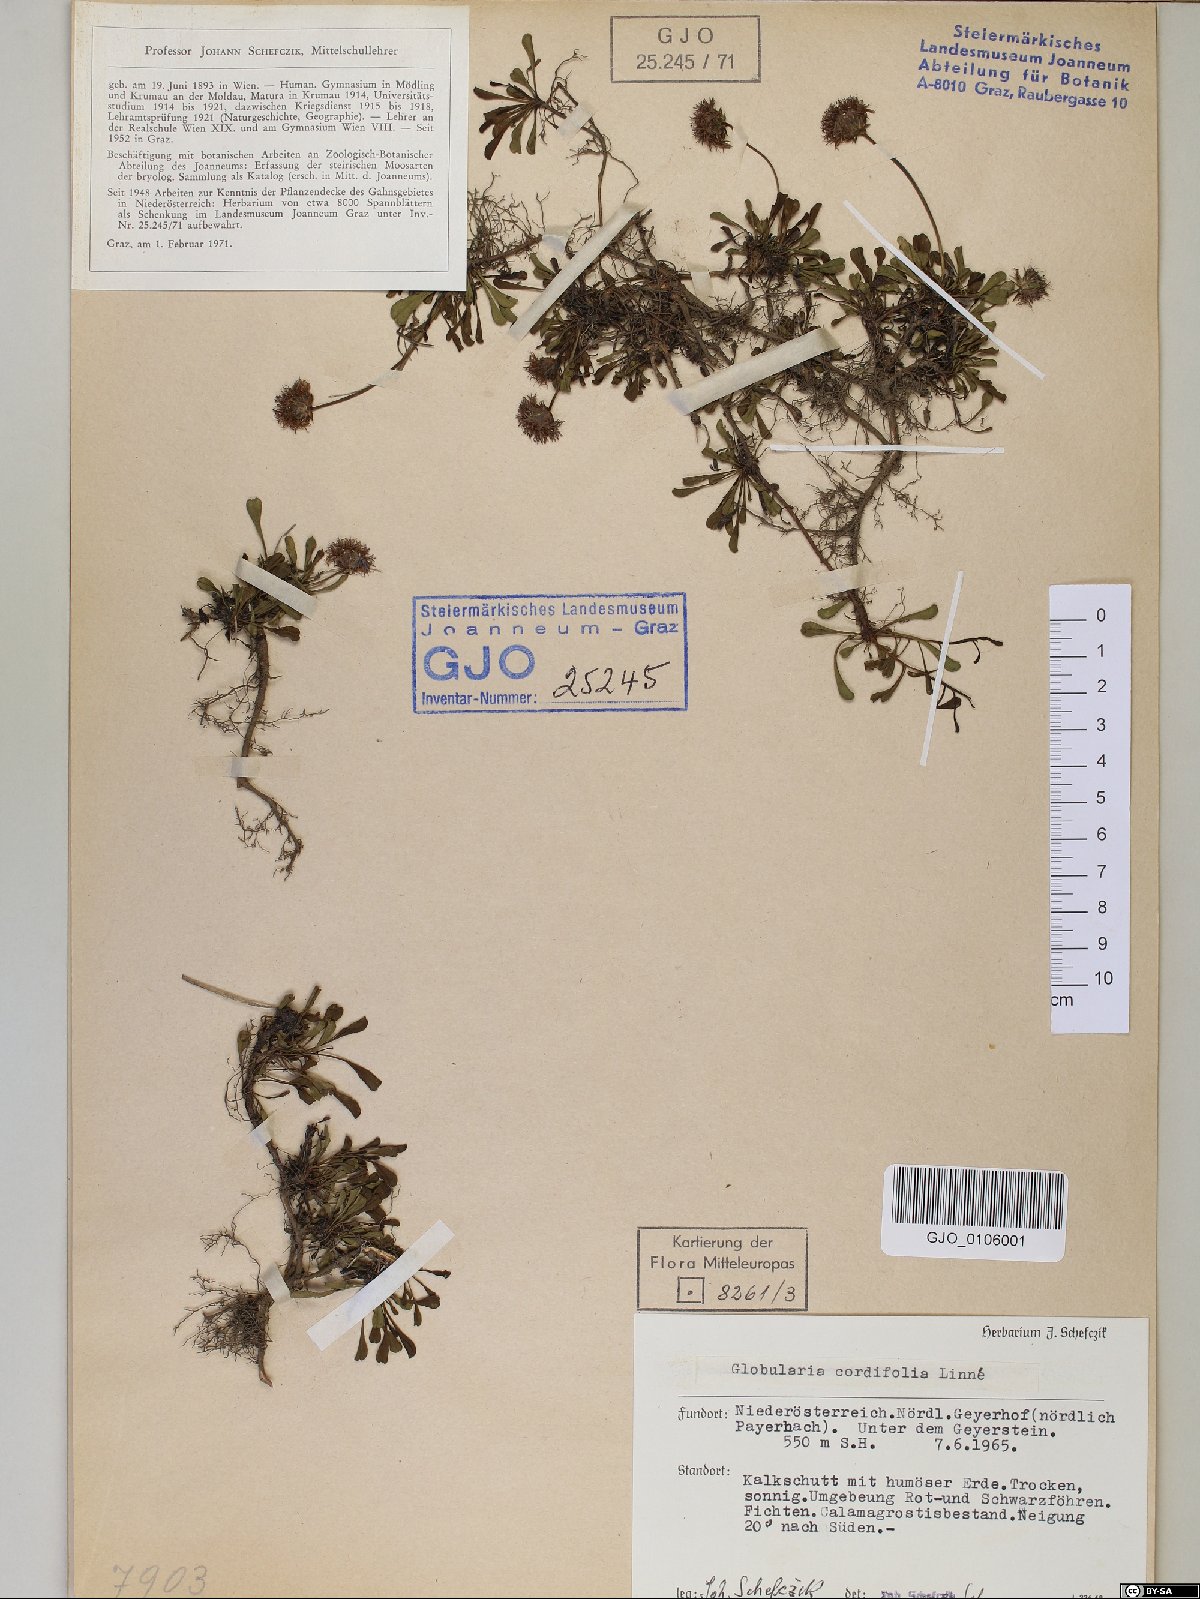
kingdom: Plantae
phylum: Tracheophyta
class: Magnoliopsida
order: Lamiales
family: Plantaginaceae
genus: Globularia
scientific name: Globularia cordifolia
